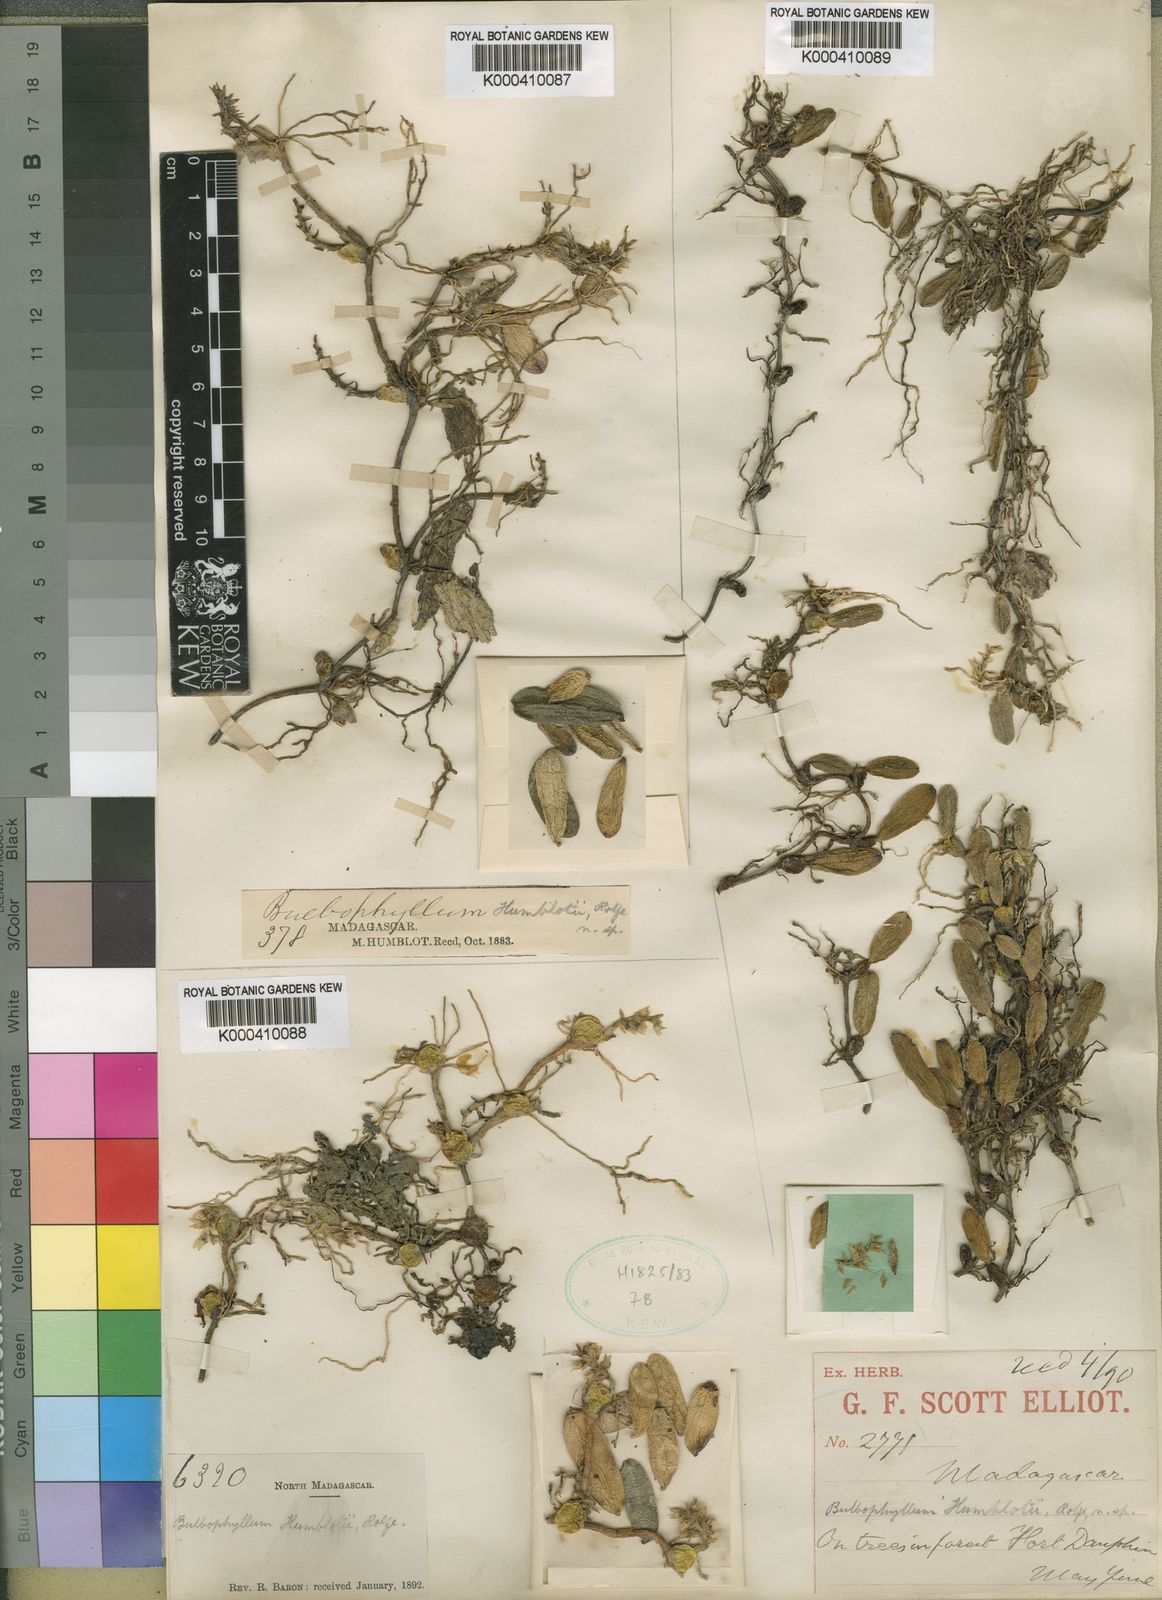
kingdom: Plantae
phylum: Tracheophyta
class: Liliopsida
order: Asparagales
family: Orchidaceae
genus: Bulbophyllum
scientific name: Bulbophyllum humblotii
